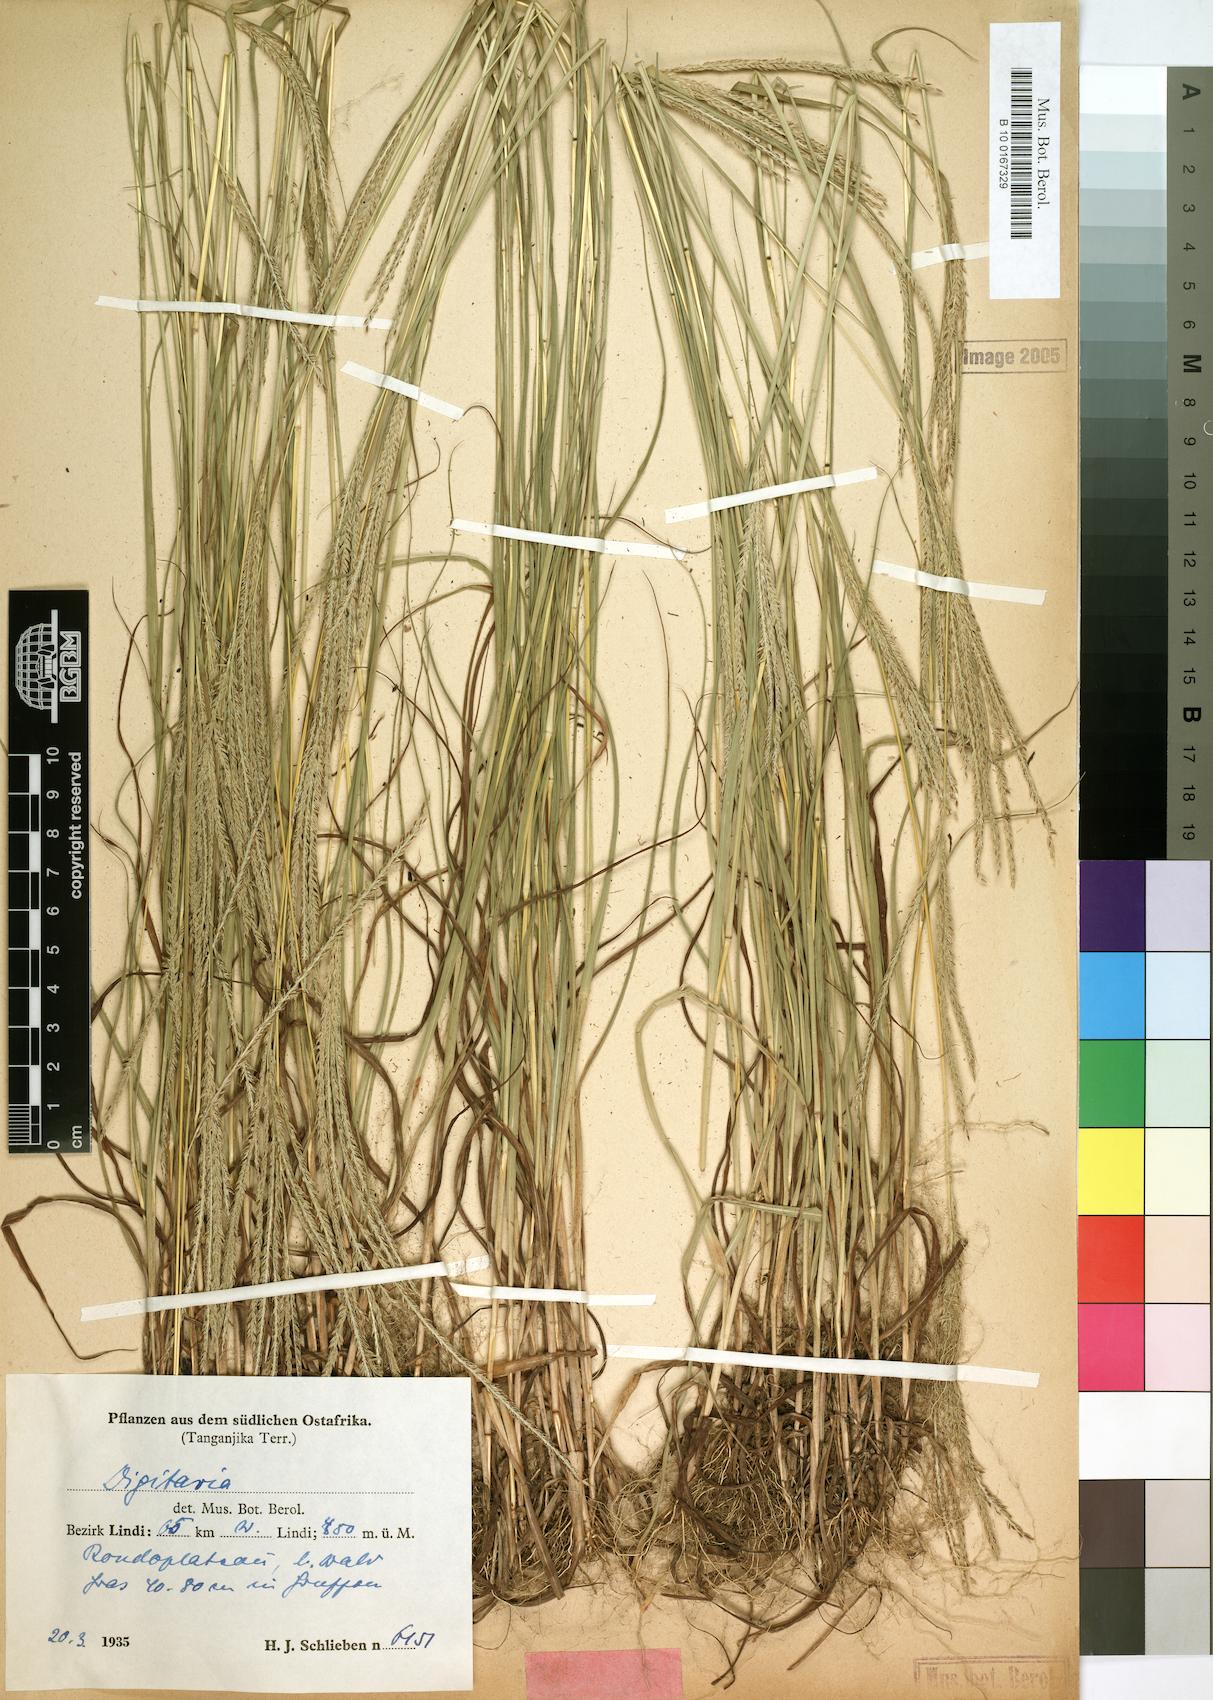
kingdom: Plantae
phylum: Tracheophyta
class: Liliopsida
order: Poales
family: Poaceae
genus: Digitaria
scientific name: Digitaria comifera
